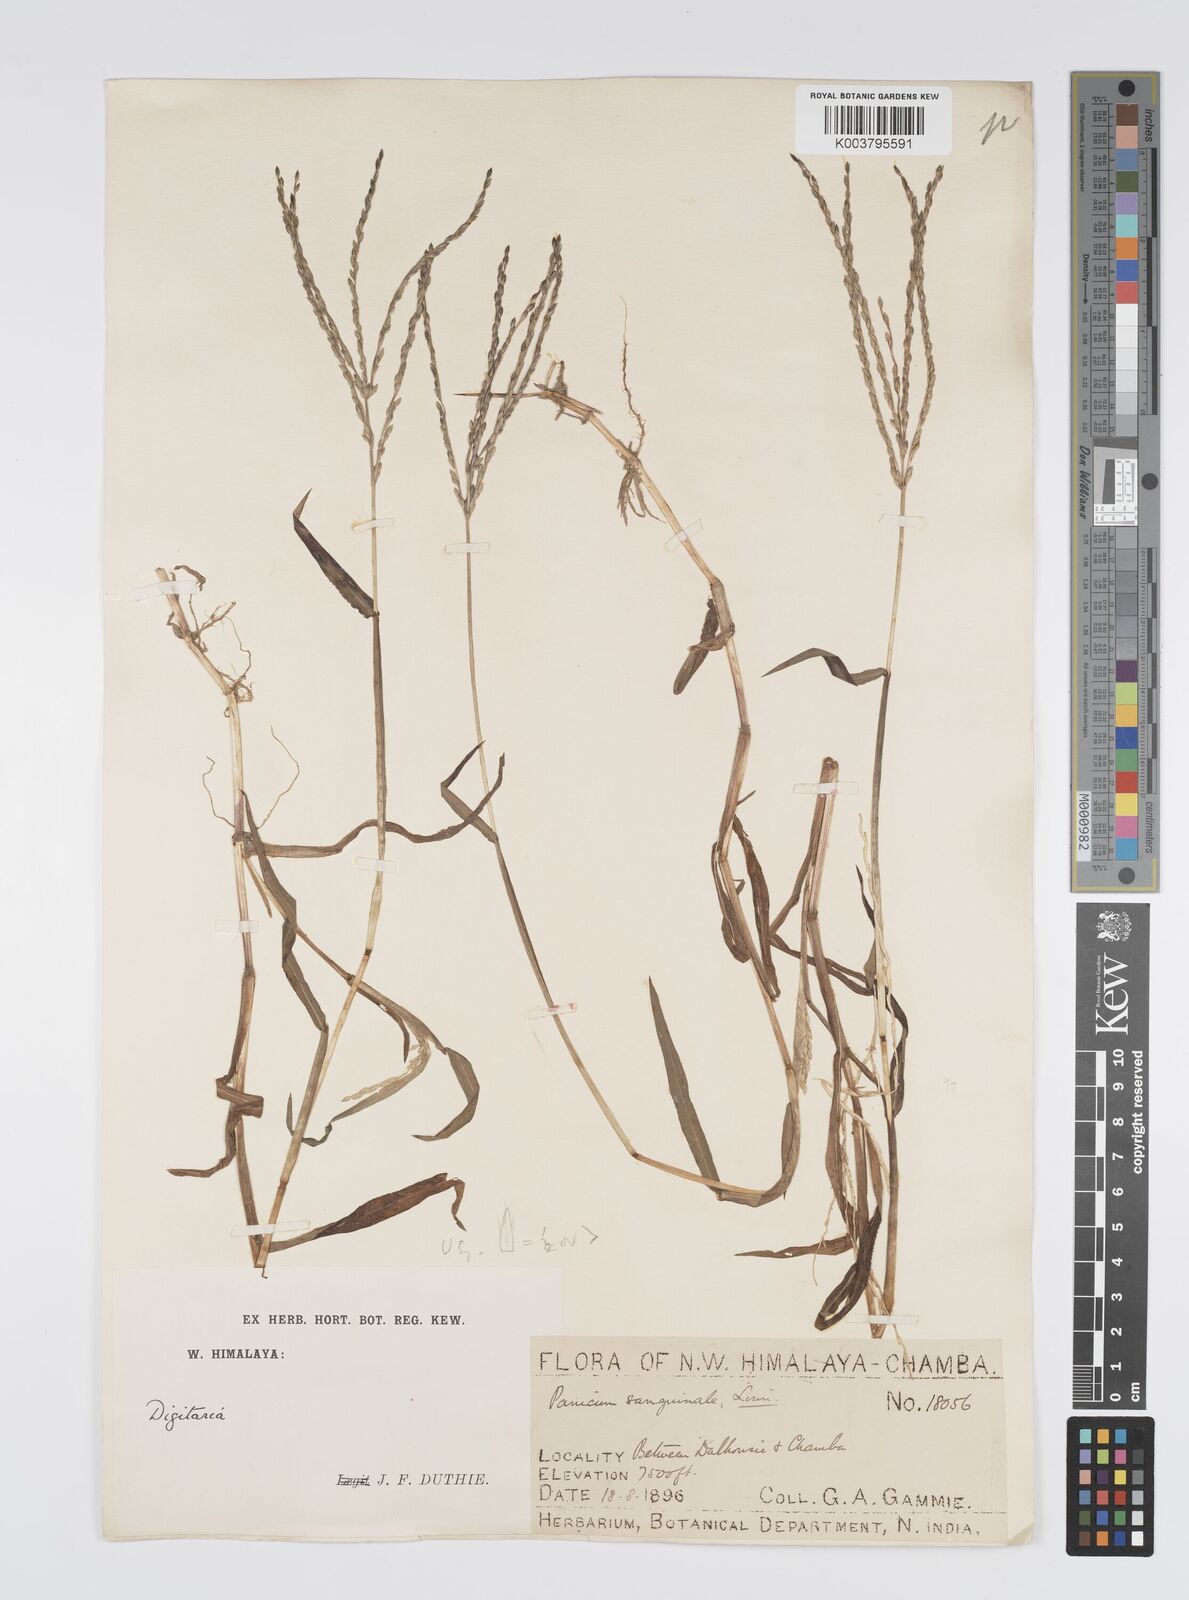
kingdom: Plantae
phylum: Tracheophyta
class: Liliopsida
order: Poales
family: Poaceae
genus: Digitaria
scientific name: Digitaria sanguinalis
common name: Hairy crabgrass
